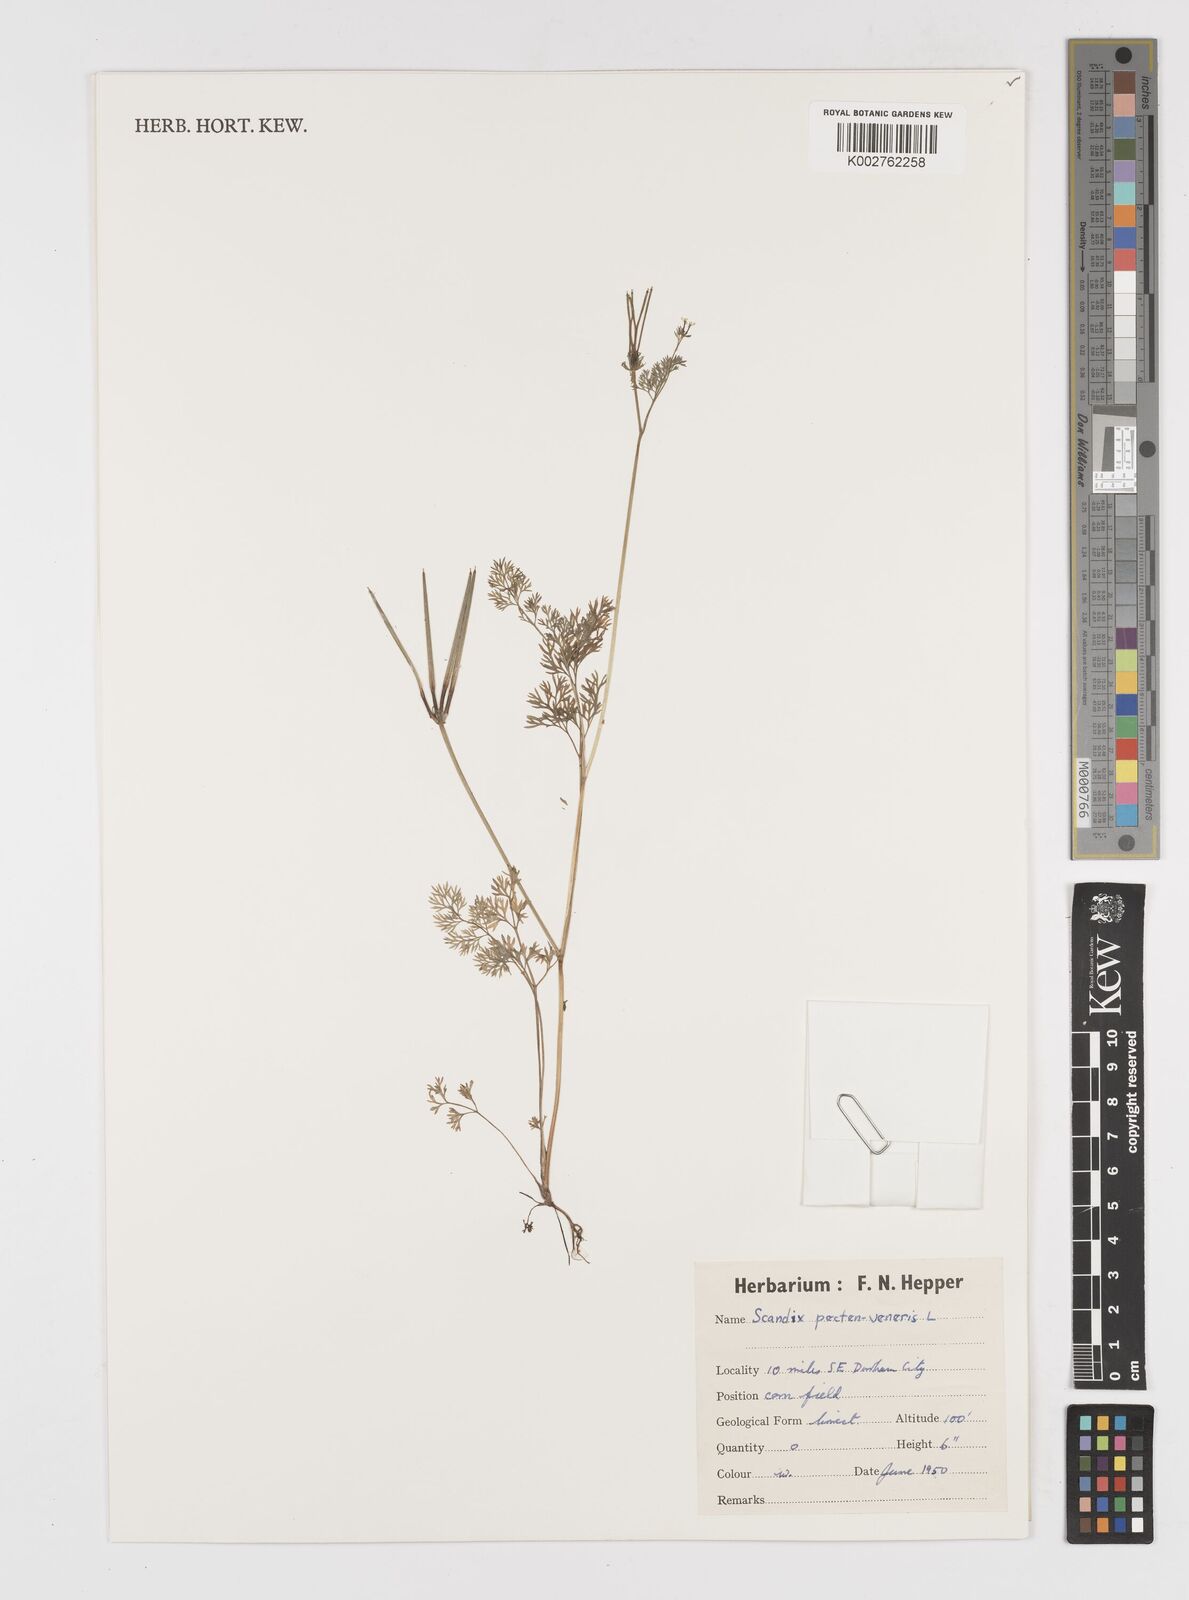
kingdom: Plantae
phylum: Tracheophyta
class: Magnoliopsida
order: Apiales
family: Apiaceae
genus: Scandix
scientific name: Scandix pecten-veneris
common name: Shepherd's-needle
